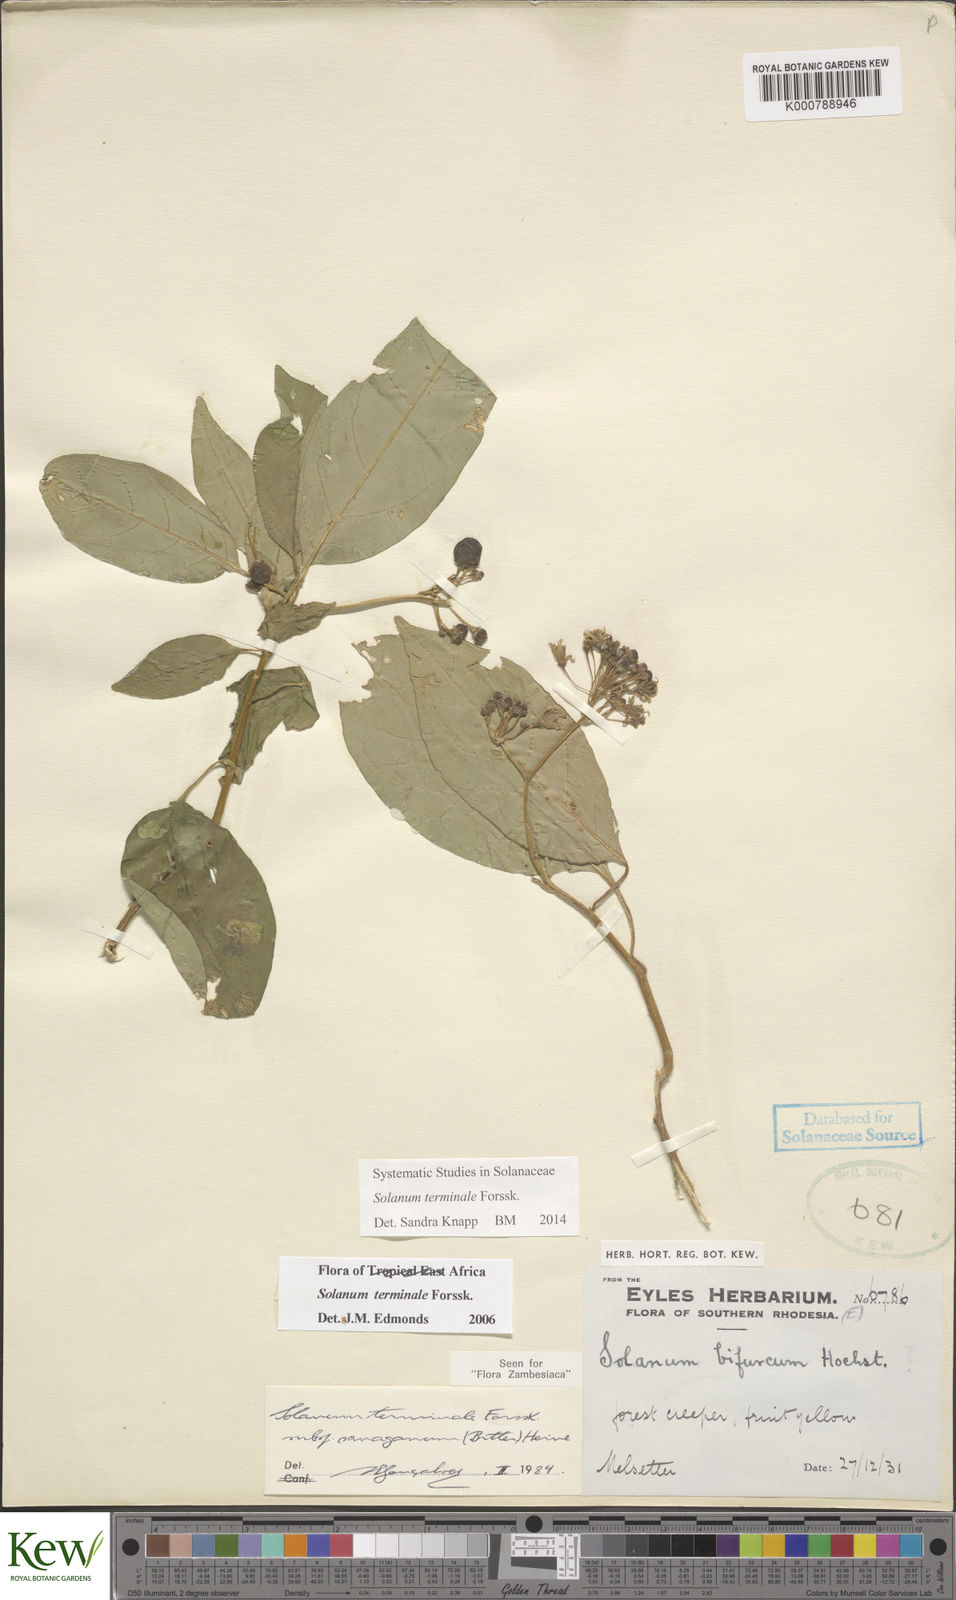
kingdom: Plantae
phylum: Tracheophyta
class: Magnoliopsida
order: Solanales
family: Solanaceae
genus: Solanum
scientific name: Solanum terminale
